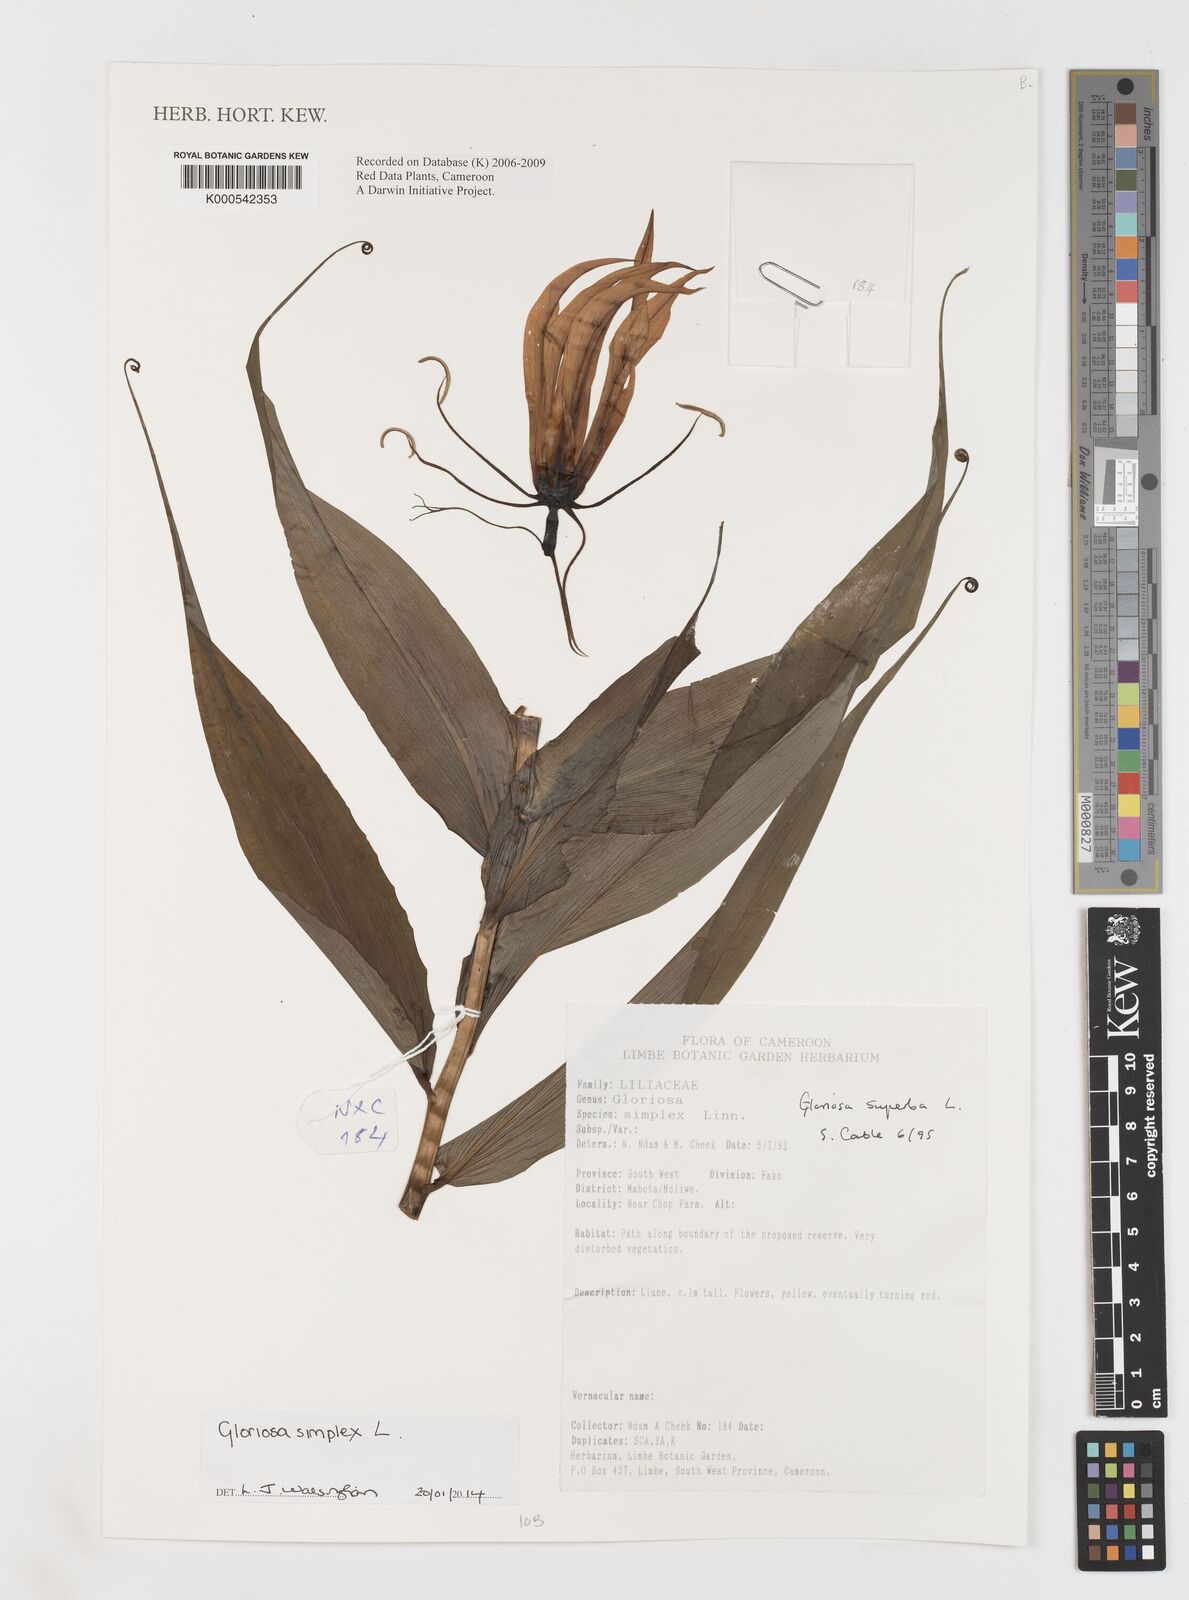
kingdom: Plantae
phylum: Tracheophyta
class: Liliopsida
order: Liliales
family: Colchicaceae
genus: Gloriosa
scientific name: Gloriosa superba
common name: Flame lily
